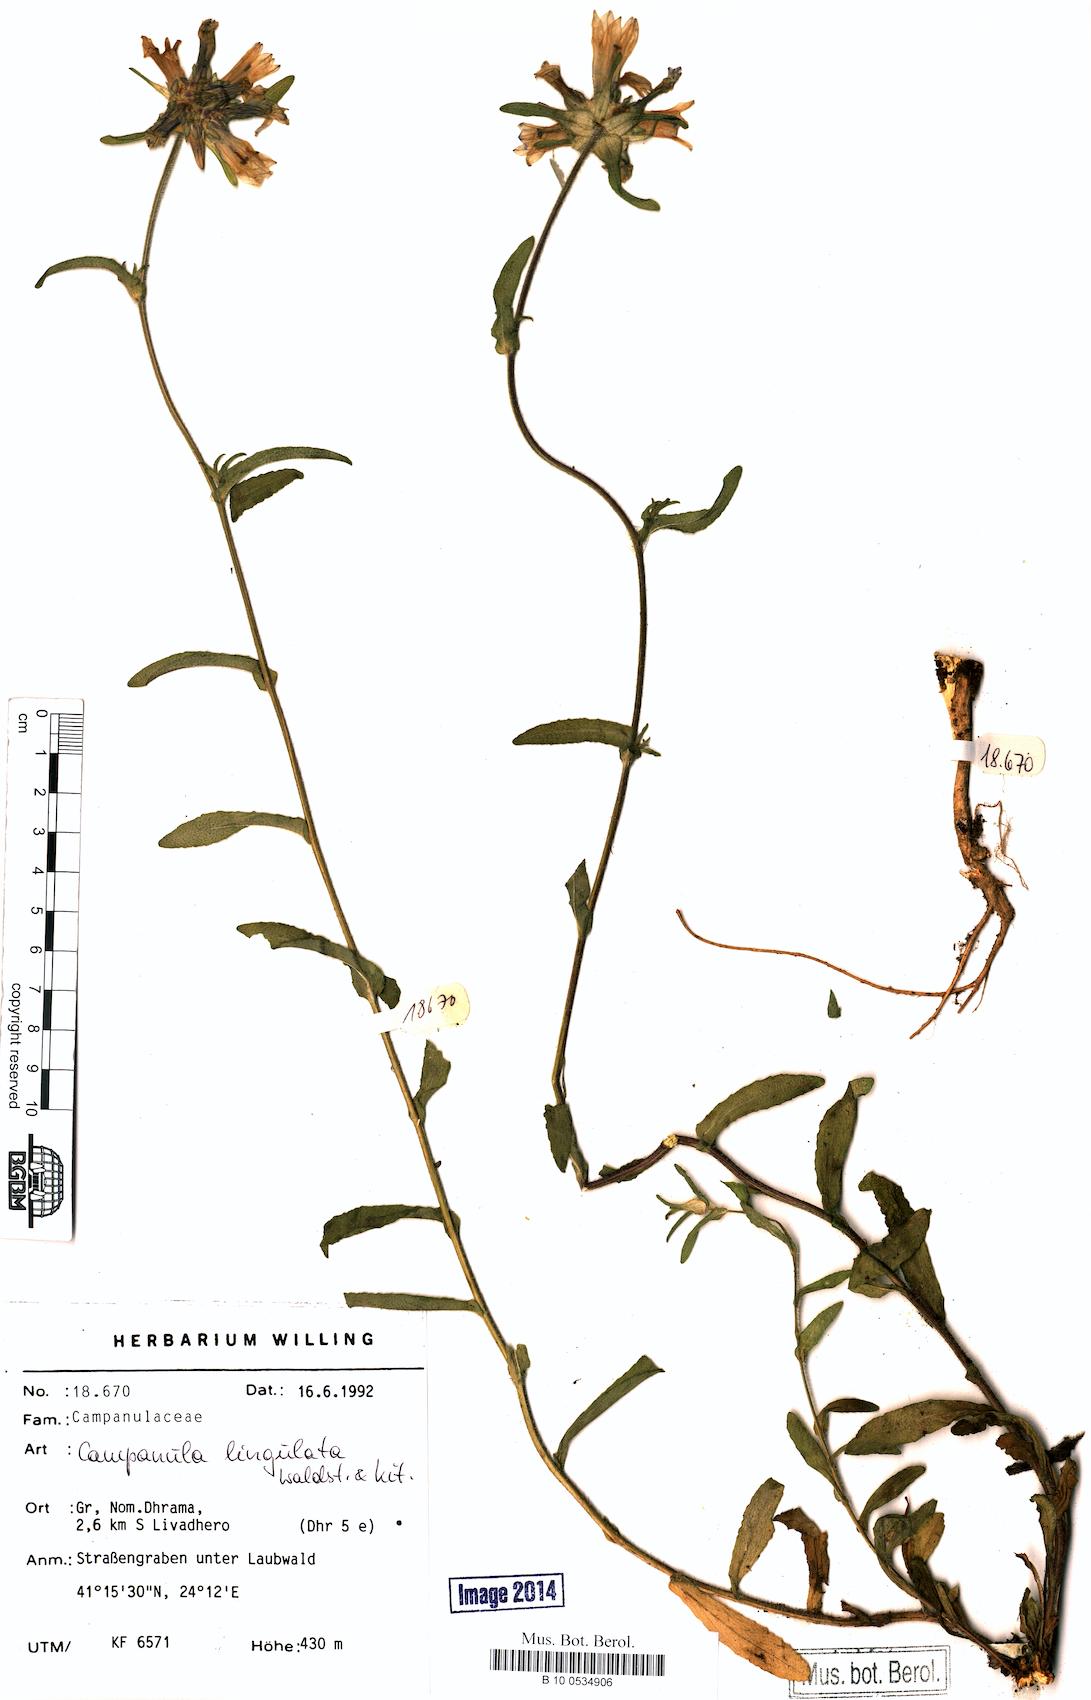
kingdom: Plantae
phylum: Tracheophyta
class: Magnoliopsida
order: Asterales
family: Campanulaceae
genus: Campanula
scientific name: Campanula lingulata
